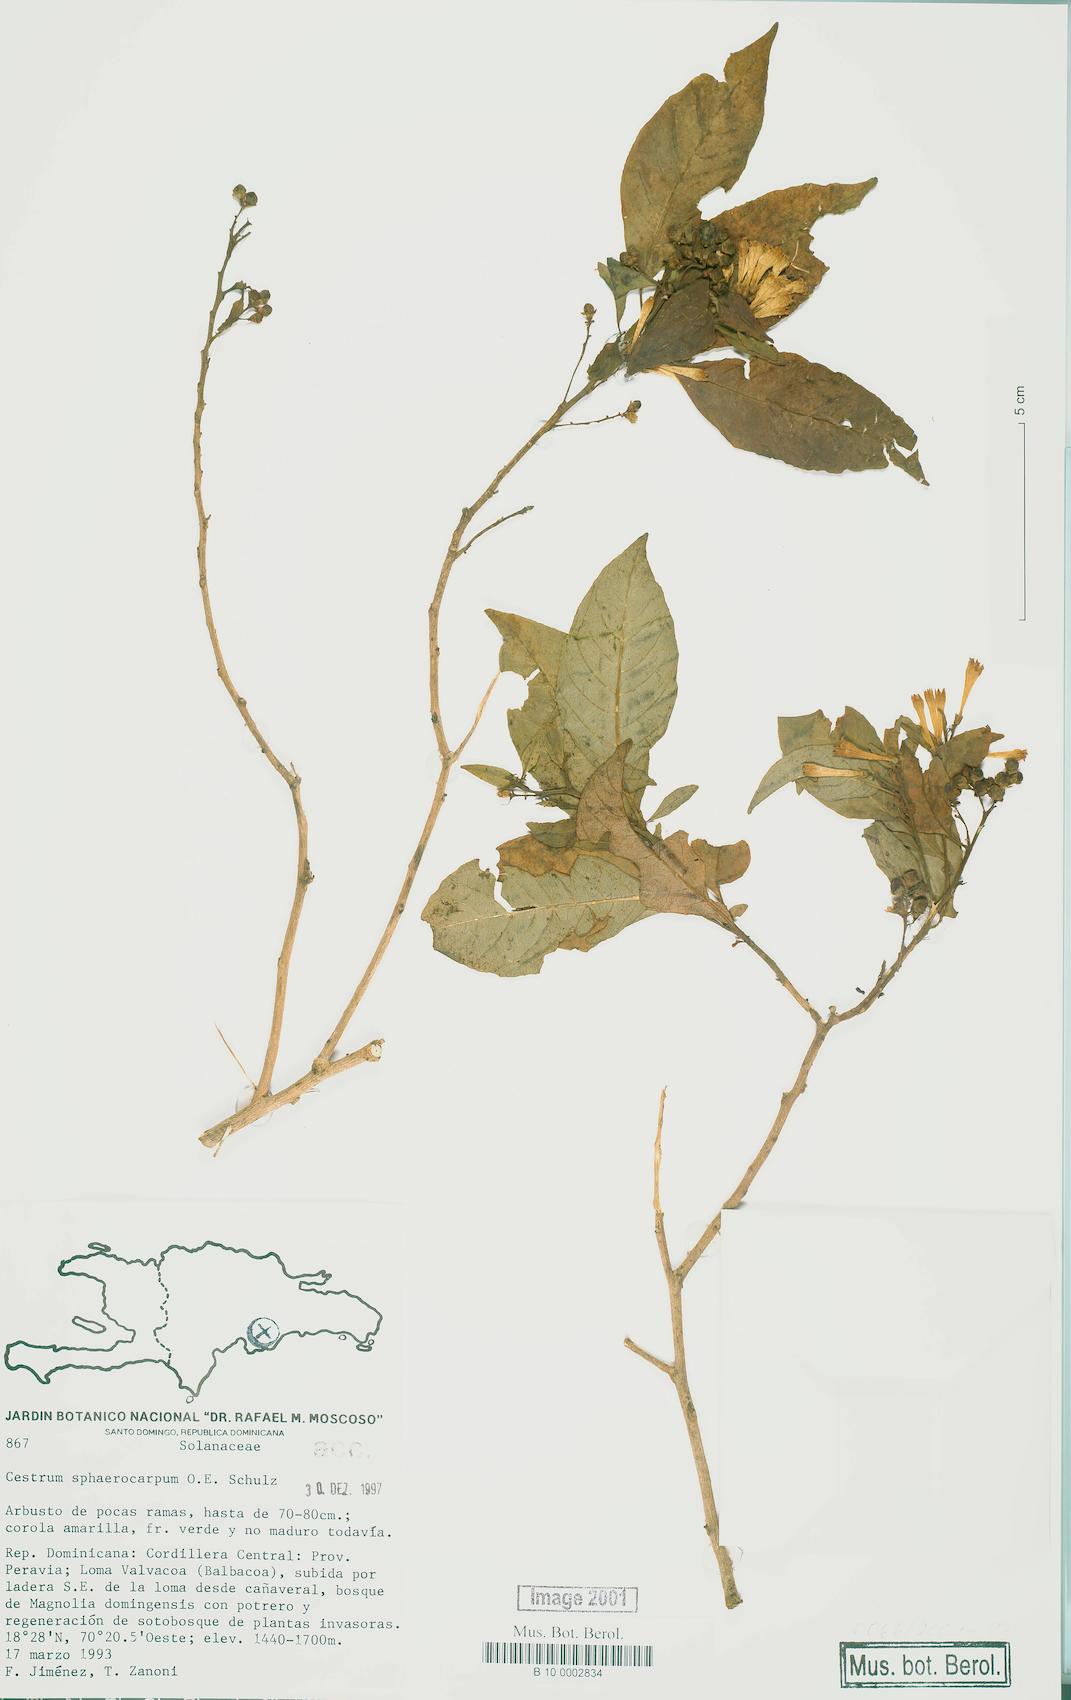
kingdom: Plantae
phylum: Tracheophyta
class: Magnoliopsida
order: Solanales
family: Solanaceae
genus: Cestrum
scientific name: Cestrum sphaerocarpum
